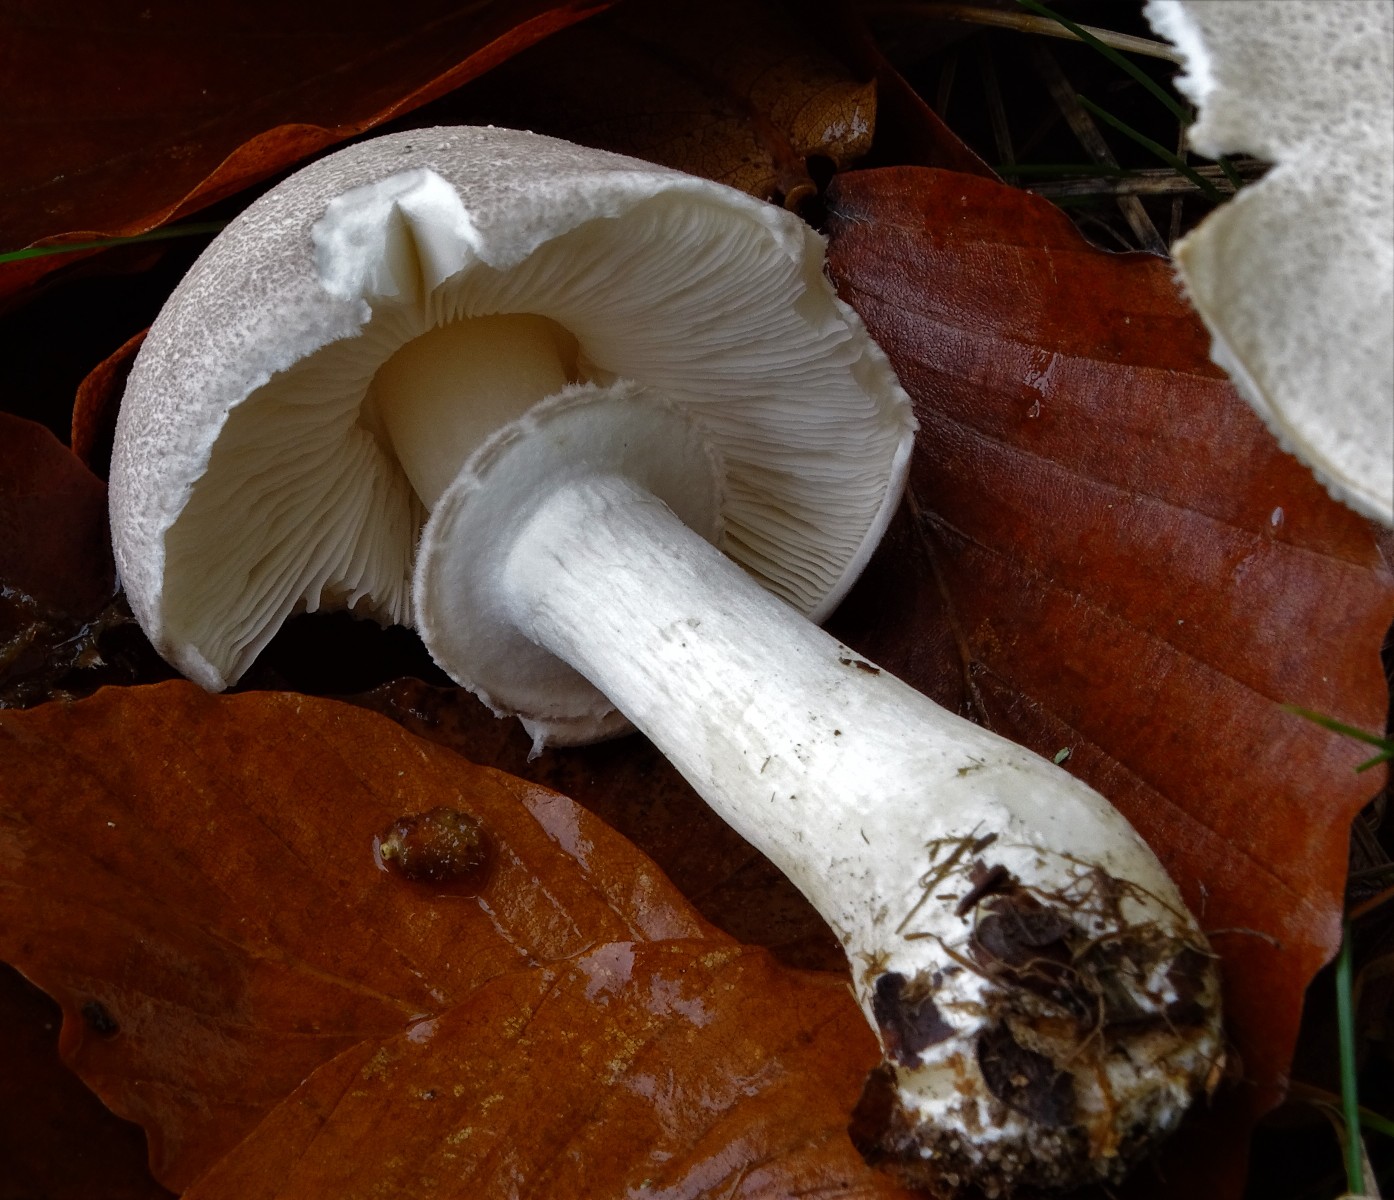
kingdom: Fungi
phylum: Basidiomycota
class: Agaricomycetes
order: Agaricales
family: Amanitaceae
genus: Limacellopsis
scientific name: Limacellopsis guttata
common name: tåre-snekkehat
